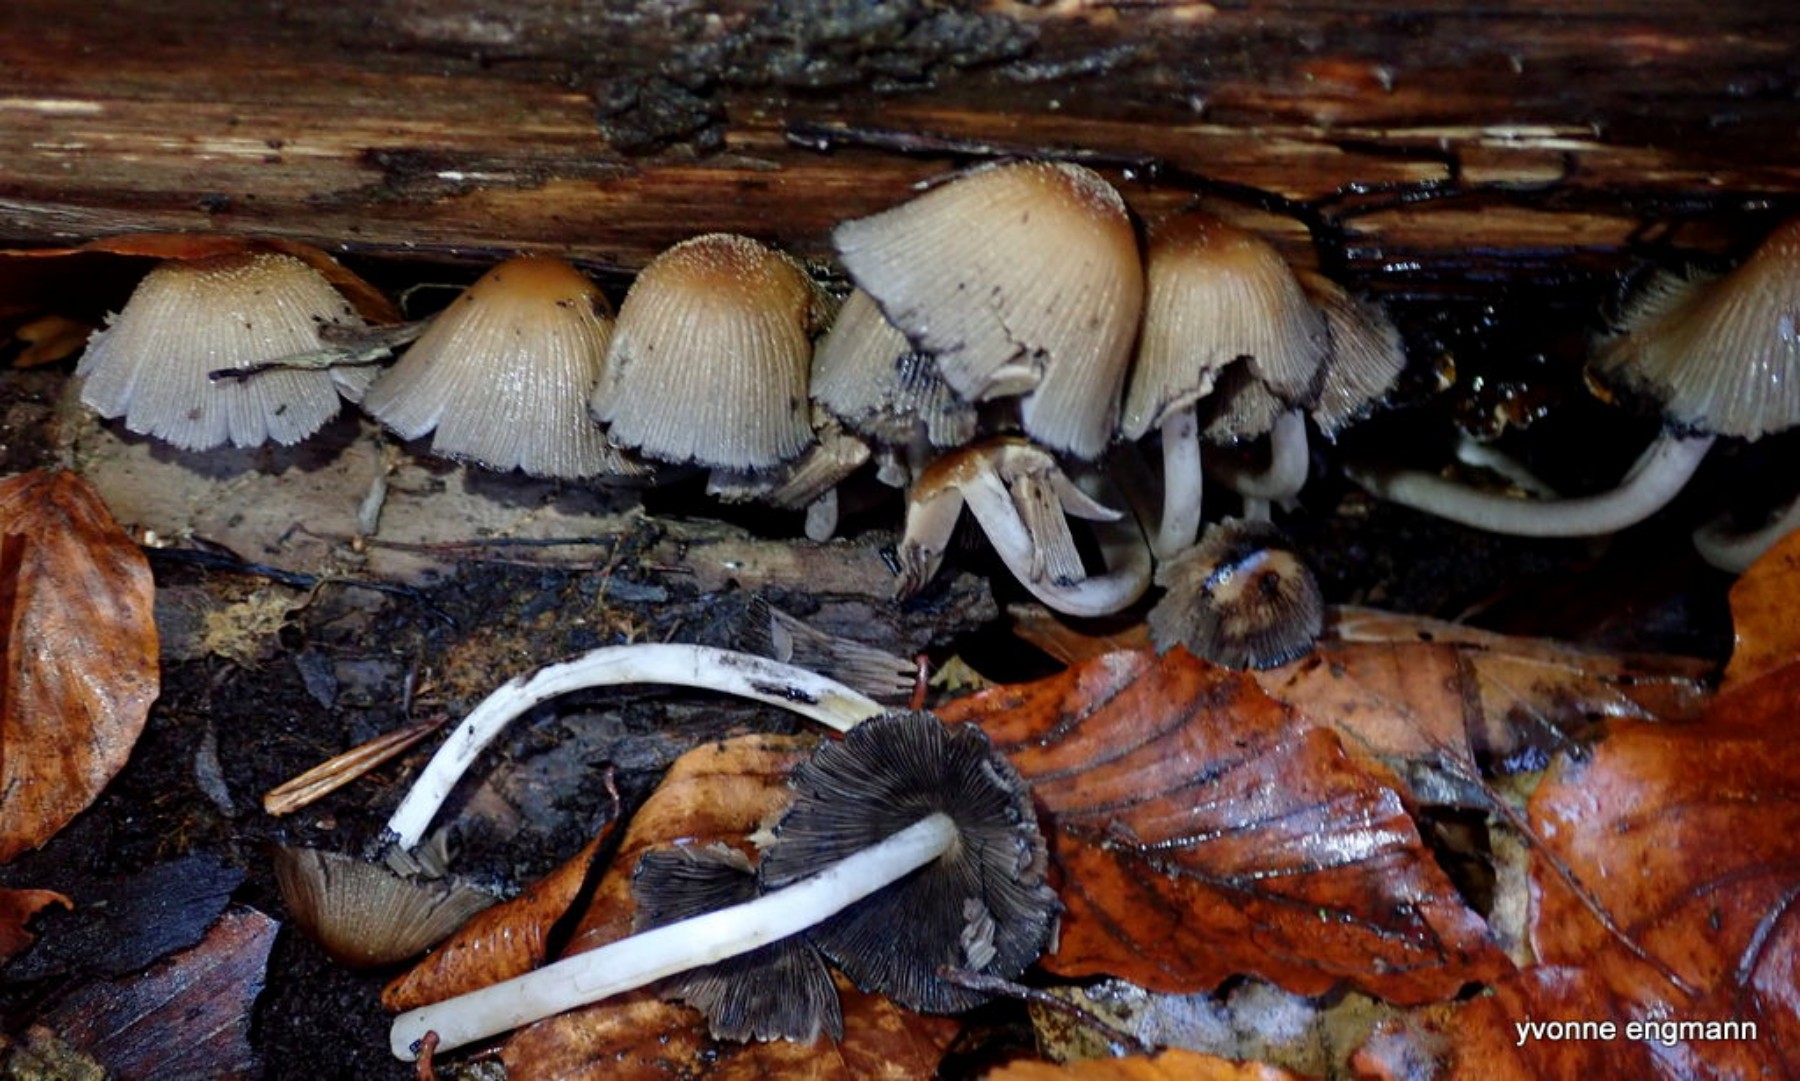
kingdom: Fungi
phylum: Basidiomycota
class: Agaricomycetes
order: Agaricales
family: Psathyrellaceae
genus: Coprinellus
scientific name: Coprinellus micaceus
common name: glimmer-blækhat
